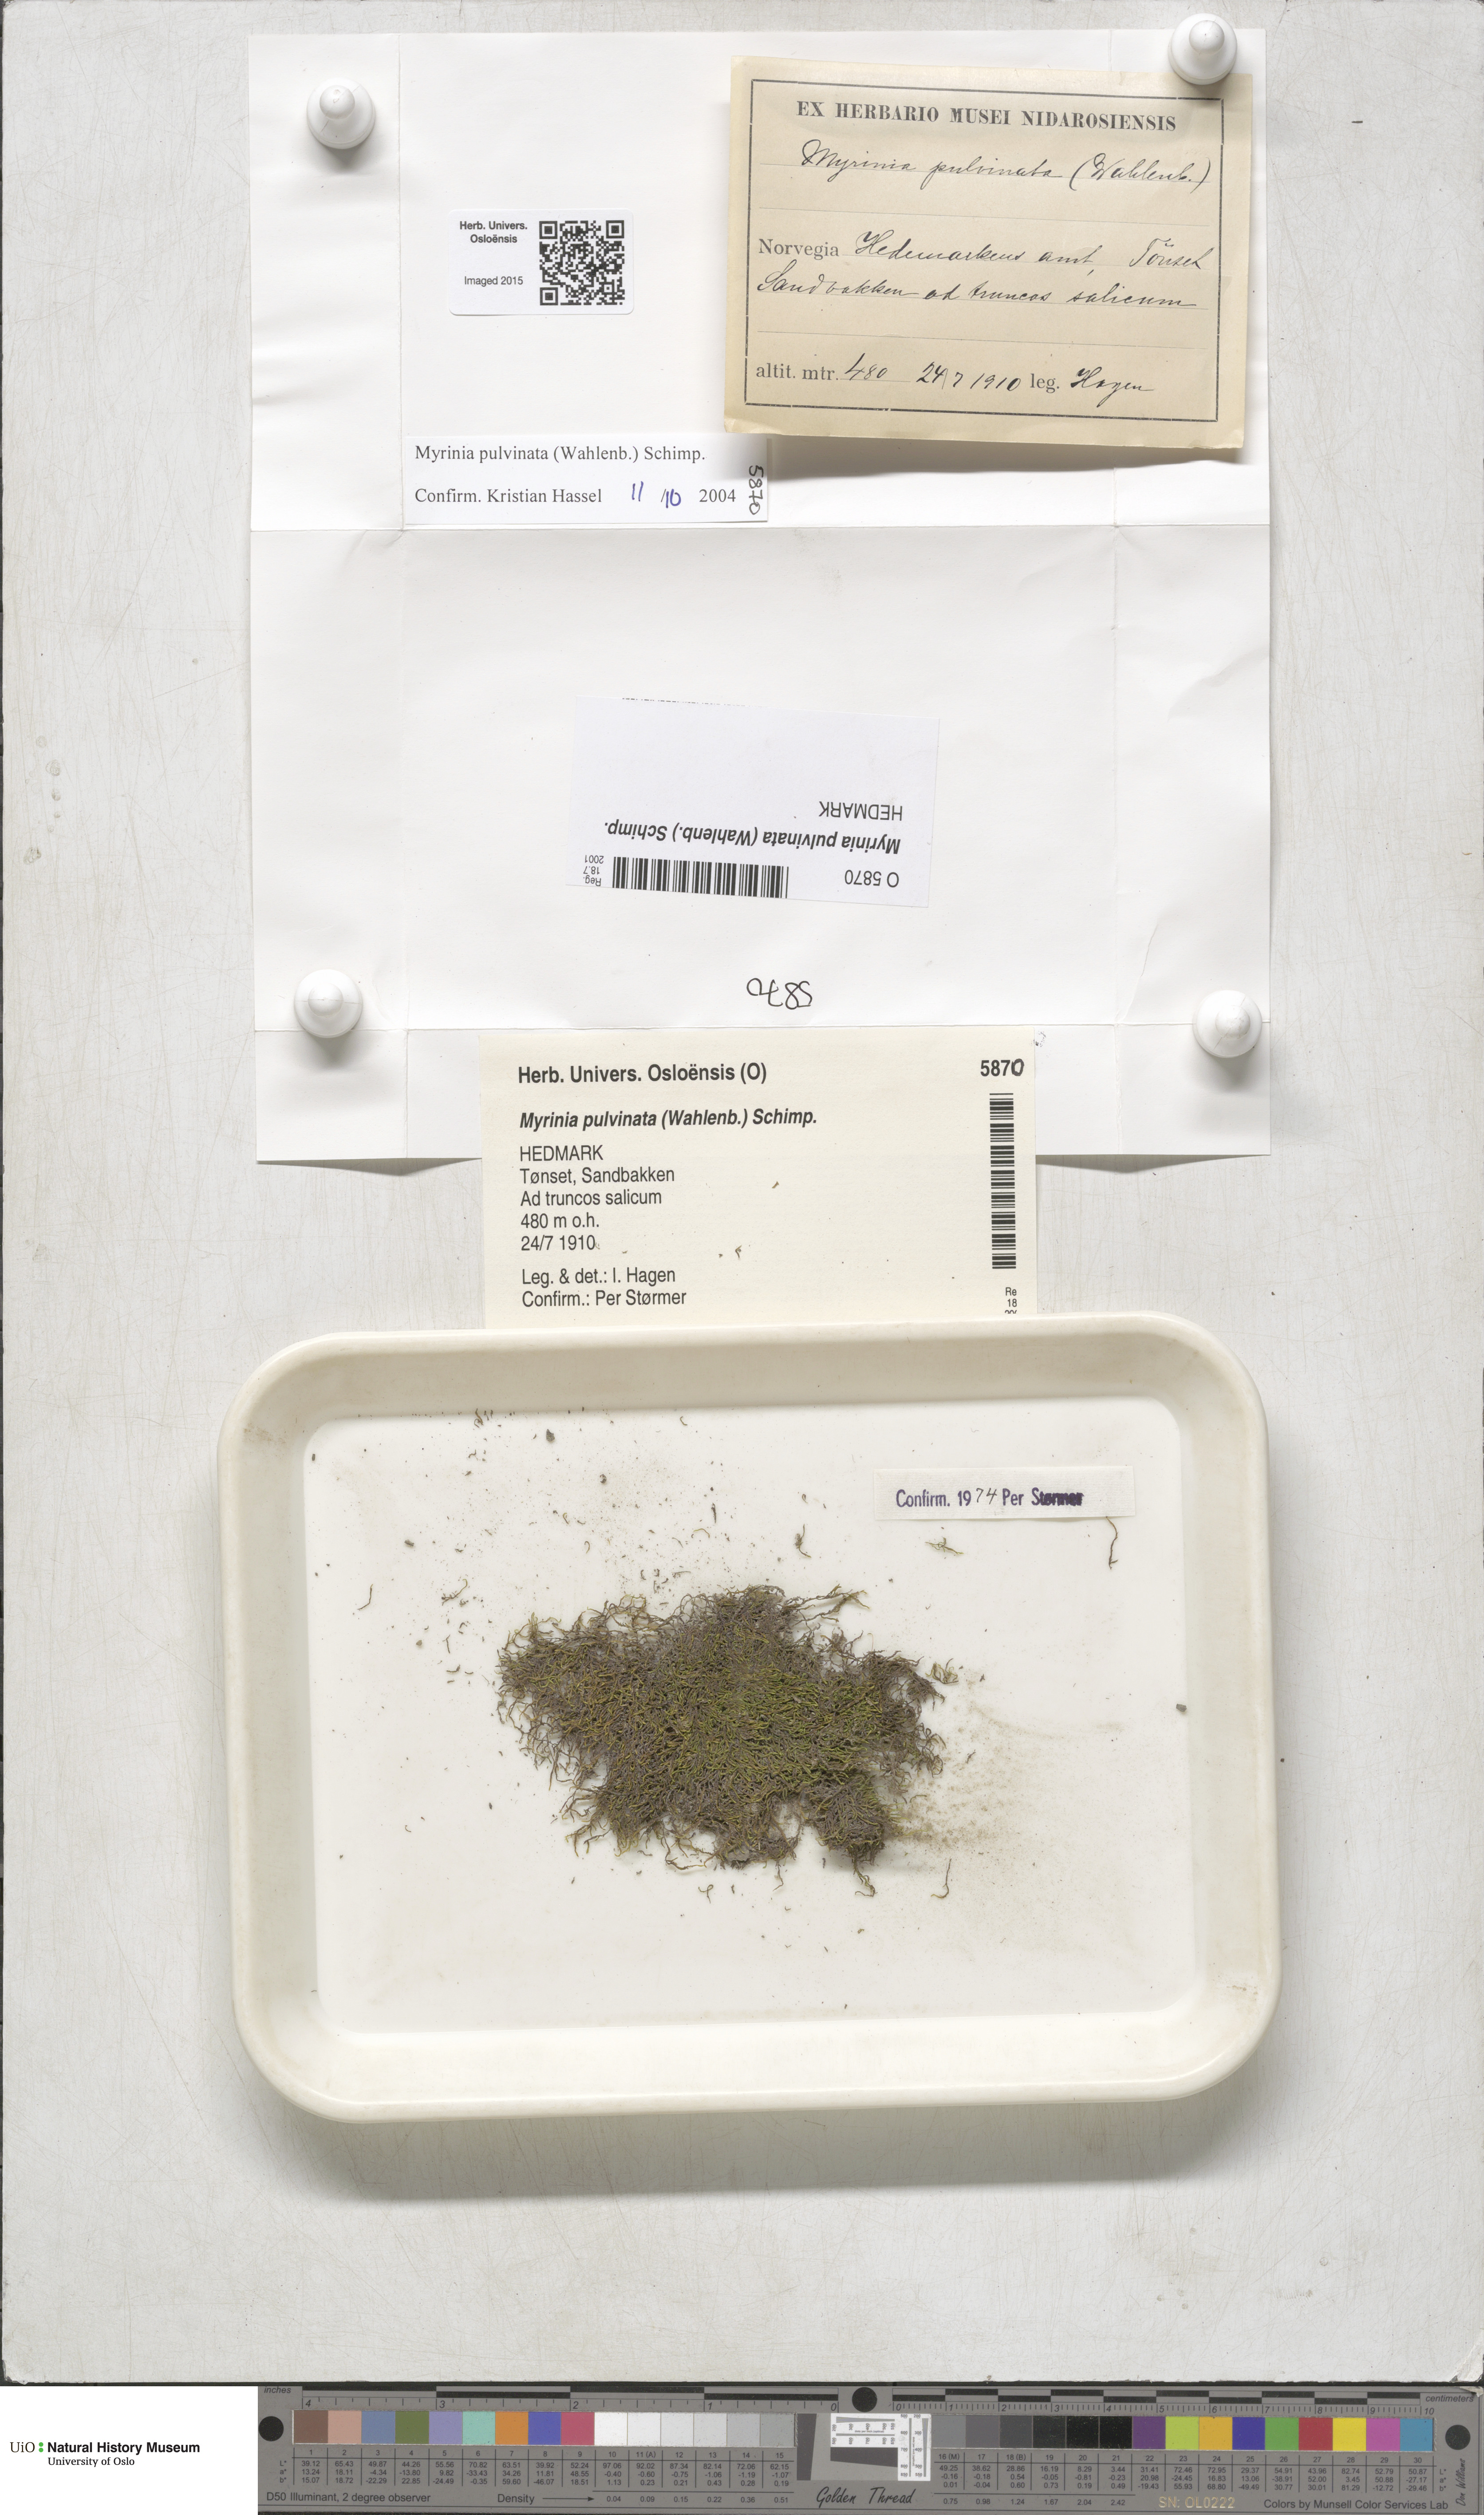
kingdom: Plantae
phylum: Bryophyta
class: Bryopsida
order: Hypnales
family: Myriniaceae
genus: Myrinia
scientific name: Myrinia pulvinata
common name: Flood-moss
